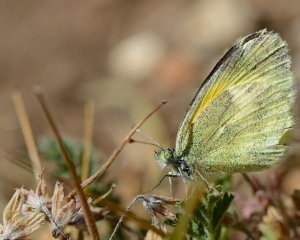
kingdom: Animalia
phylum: Arthropoda
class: Insecta
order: Lepidoptera
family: Pieridae
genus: Nathalis
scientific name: Nathalis iole
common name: Dainty Sulphur
